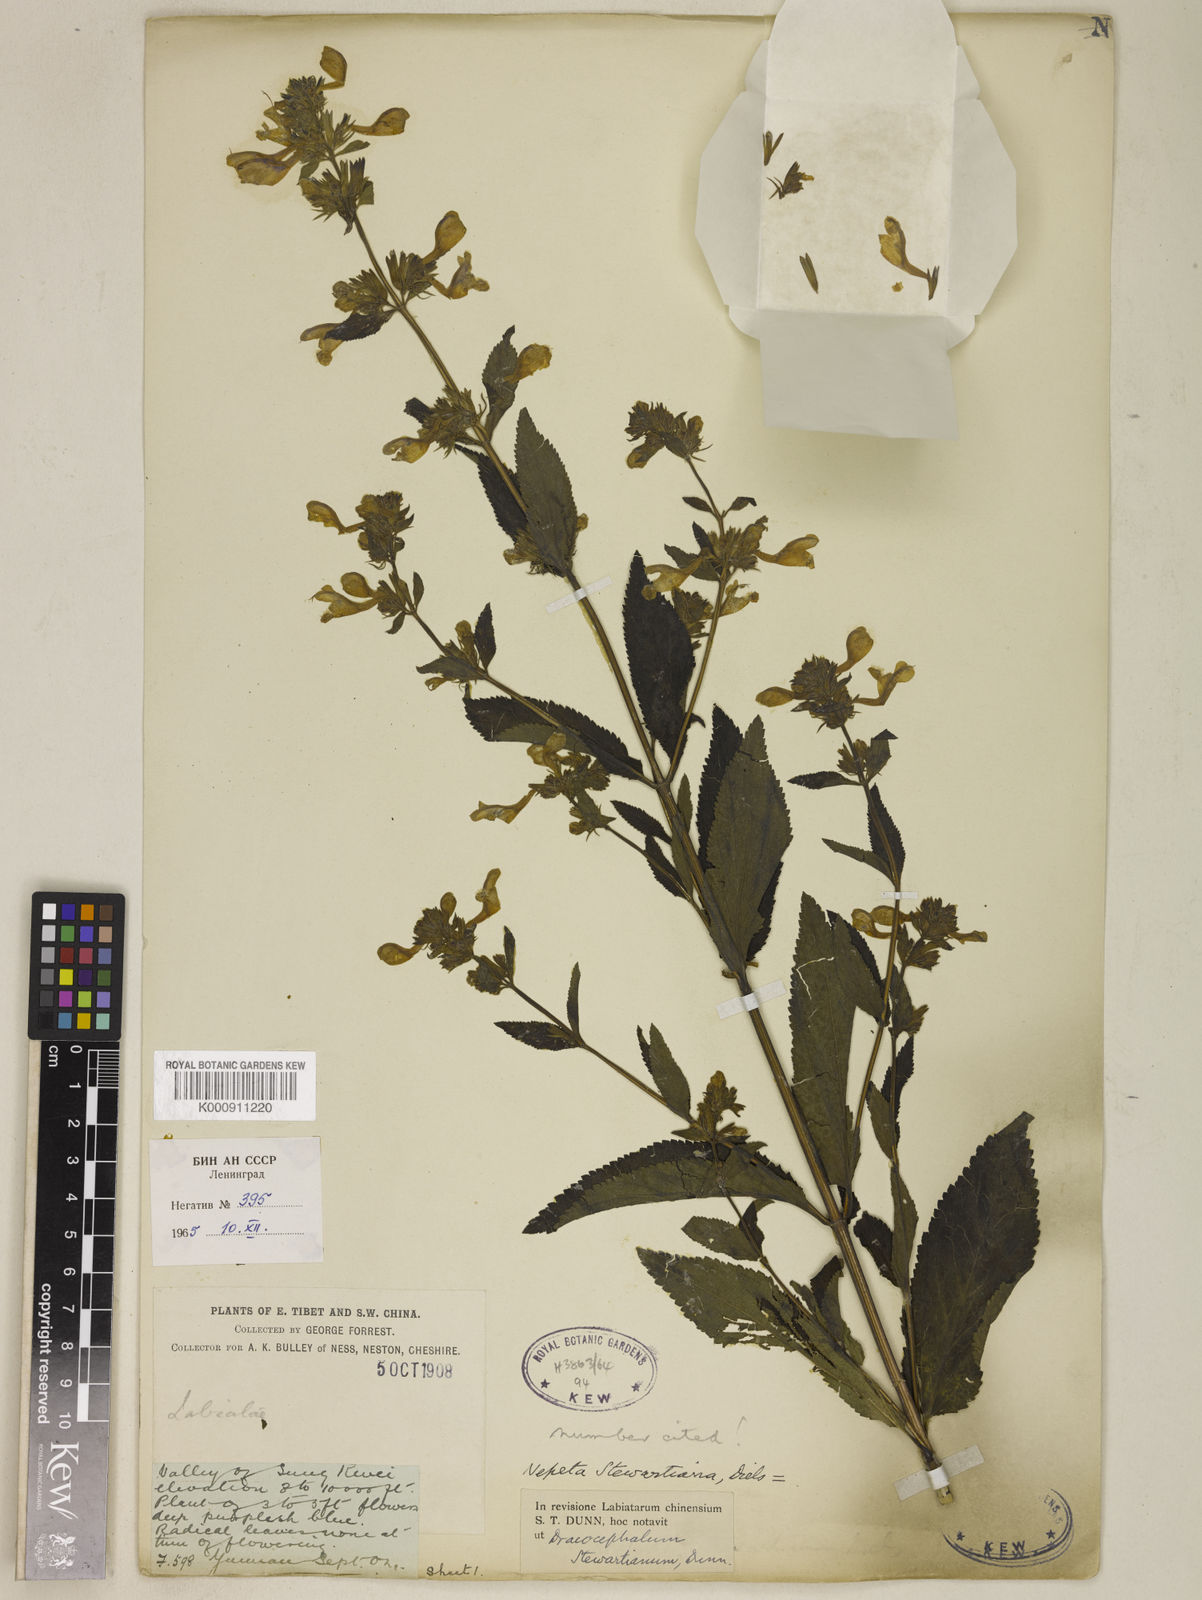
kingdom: Plantae
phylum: Tracheophyta
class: Magnoliopsida
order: Lamiales
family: Lamiaceae
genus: Nepeta
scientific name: Nepeta stewartiana
